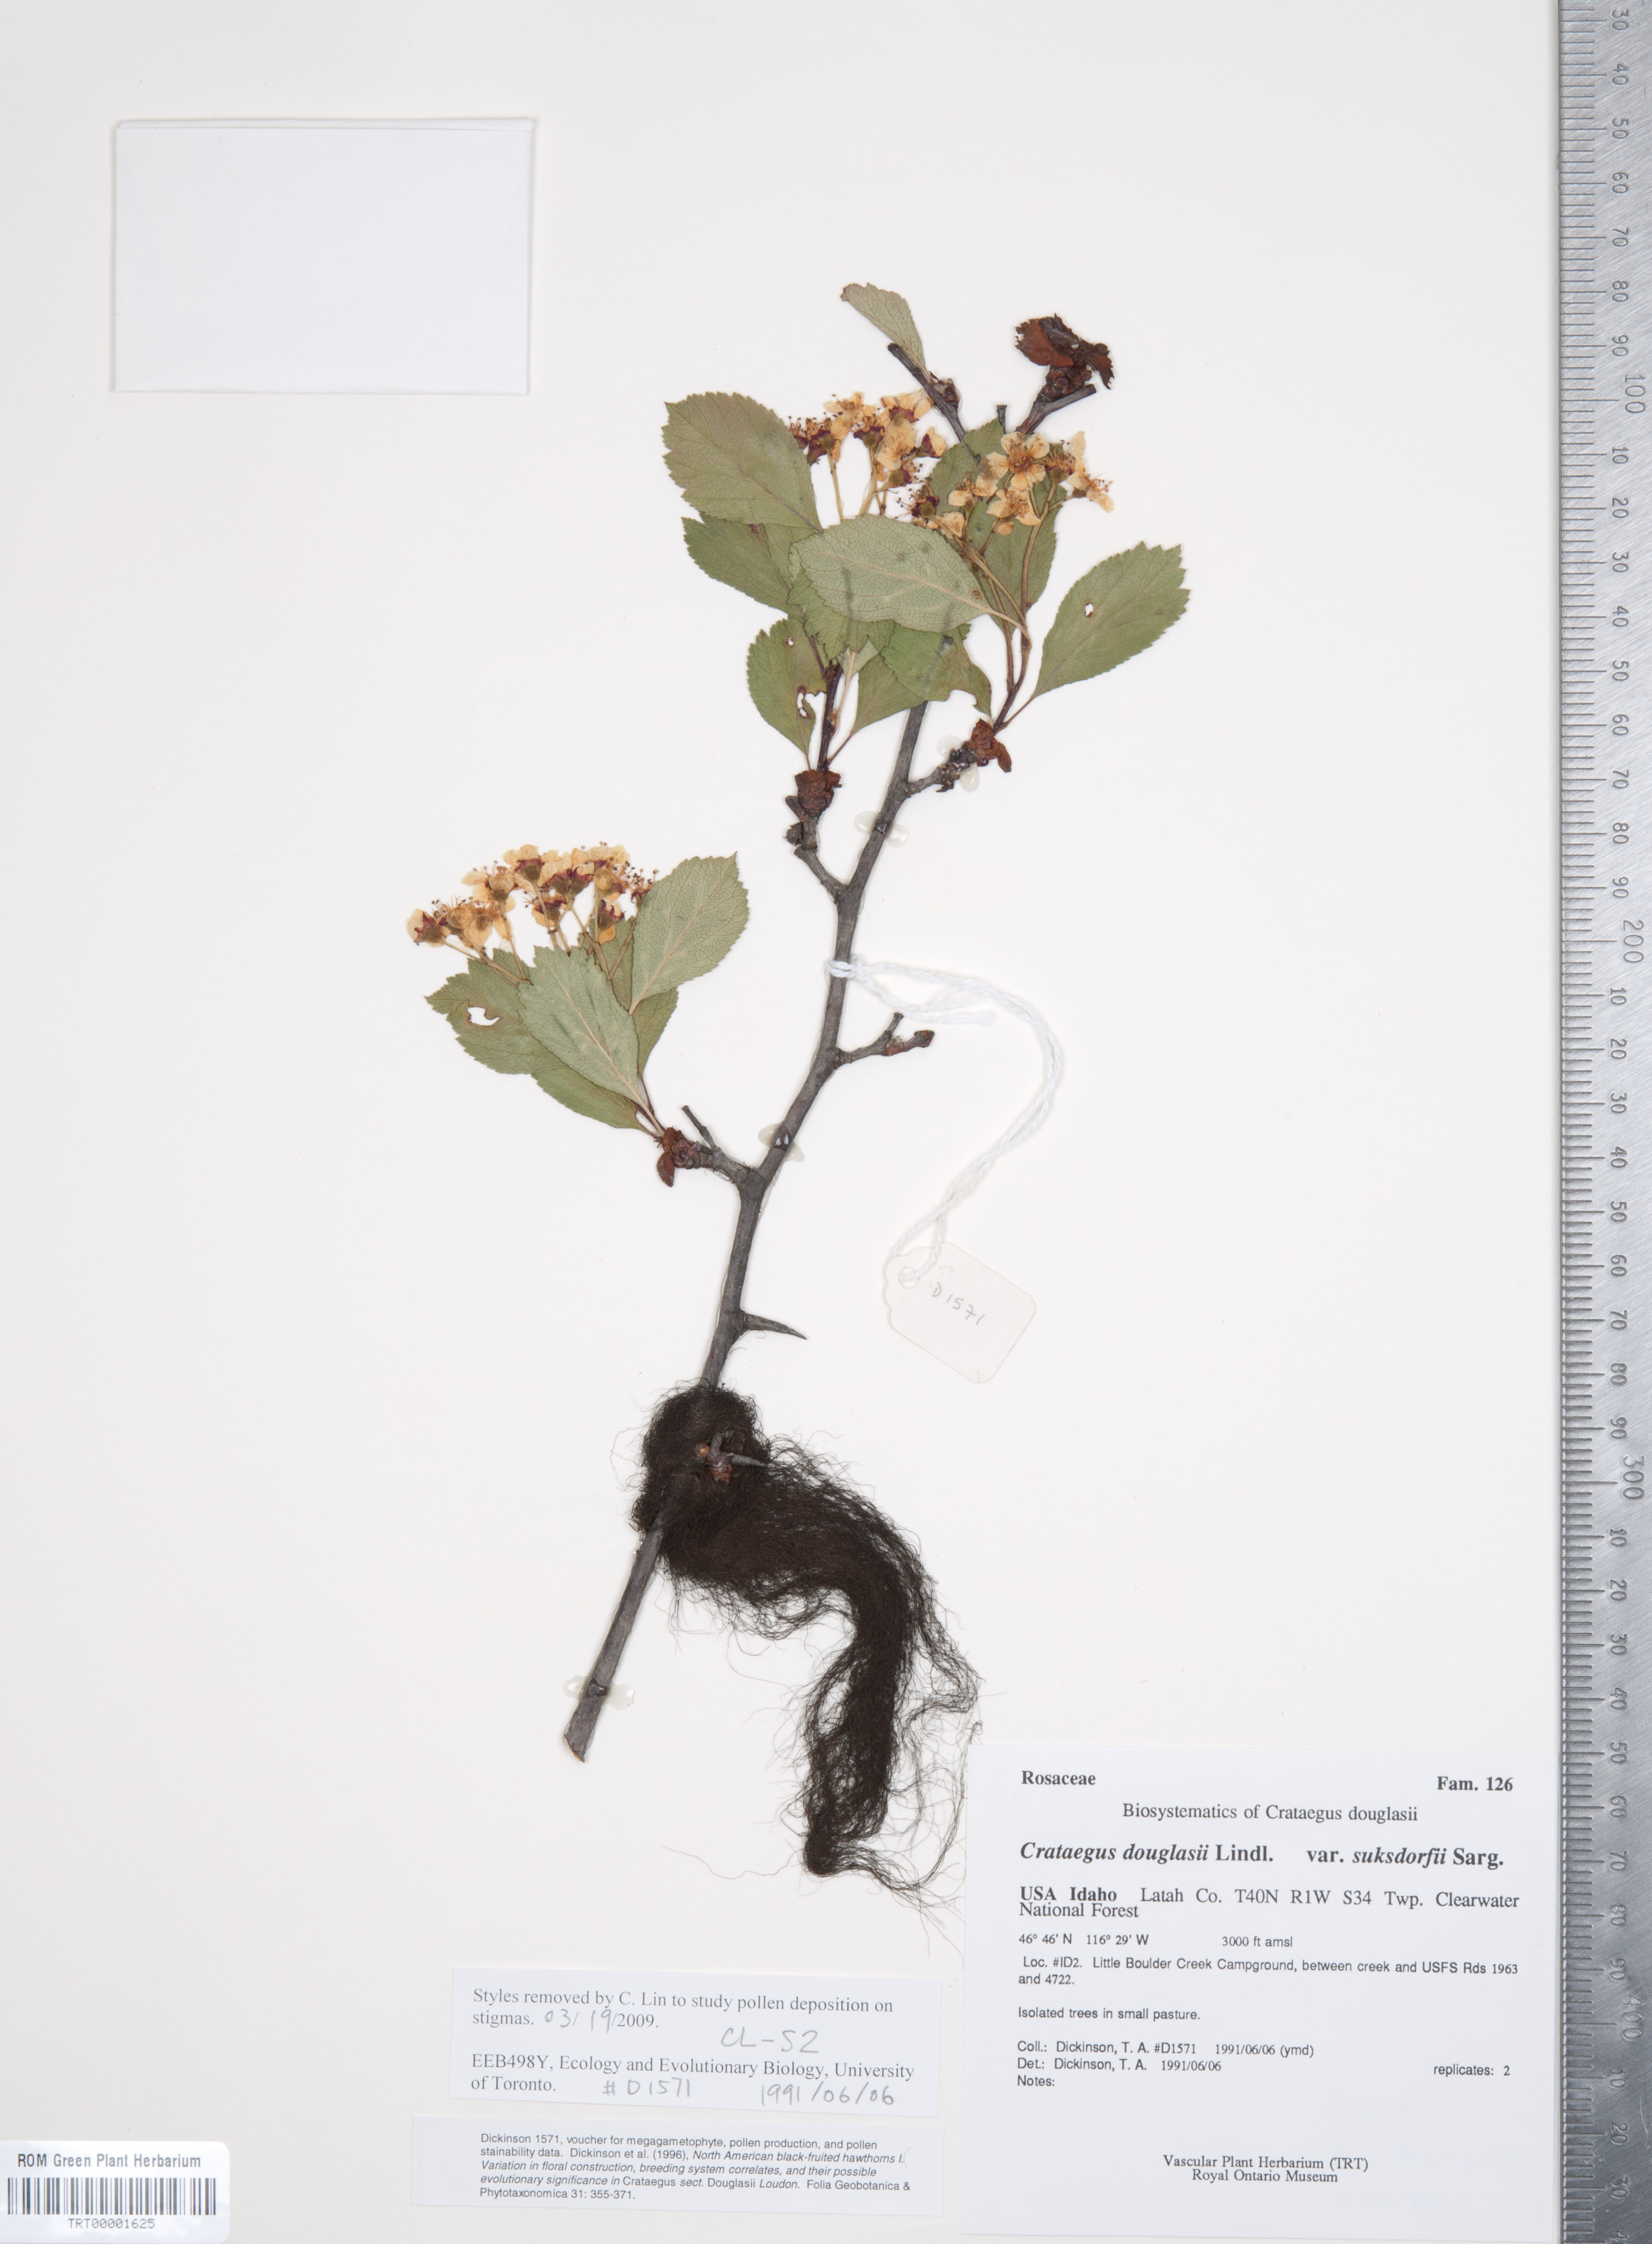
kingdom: Plantae
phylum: Tracheophyta
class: Magnoliopsida
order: Rosales
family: Rosaceae
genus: Crataegus
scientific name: Crataegus gaylussacia
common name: Huckleberry hawthorn
